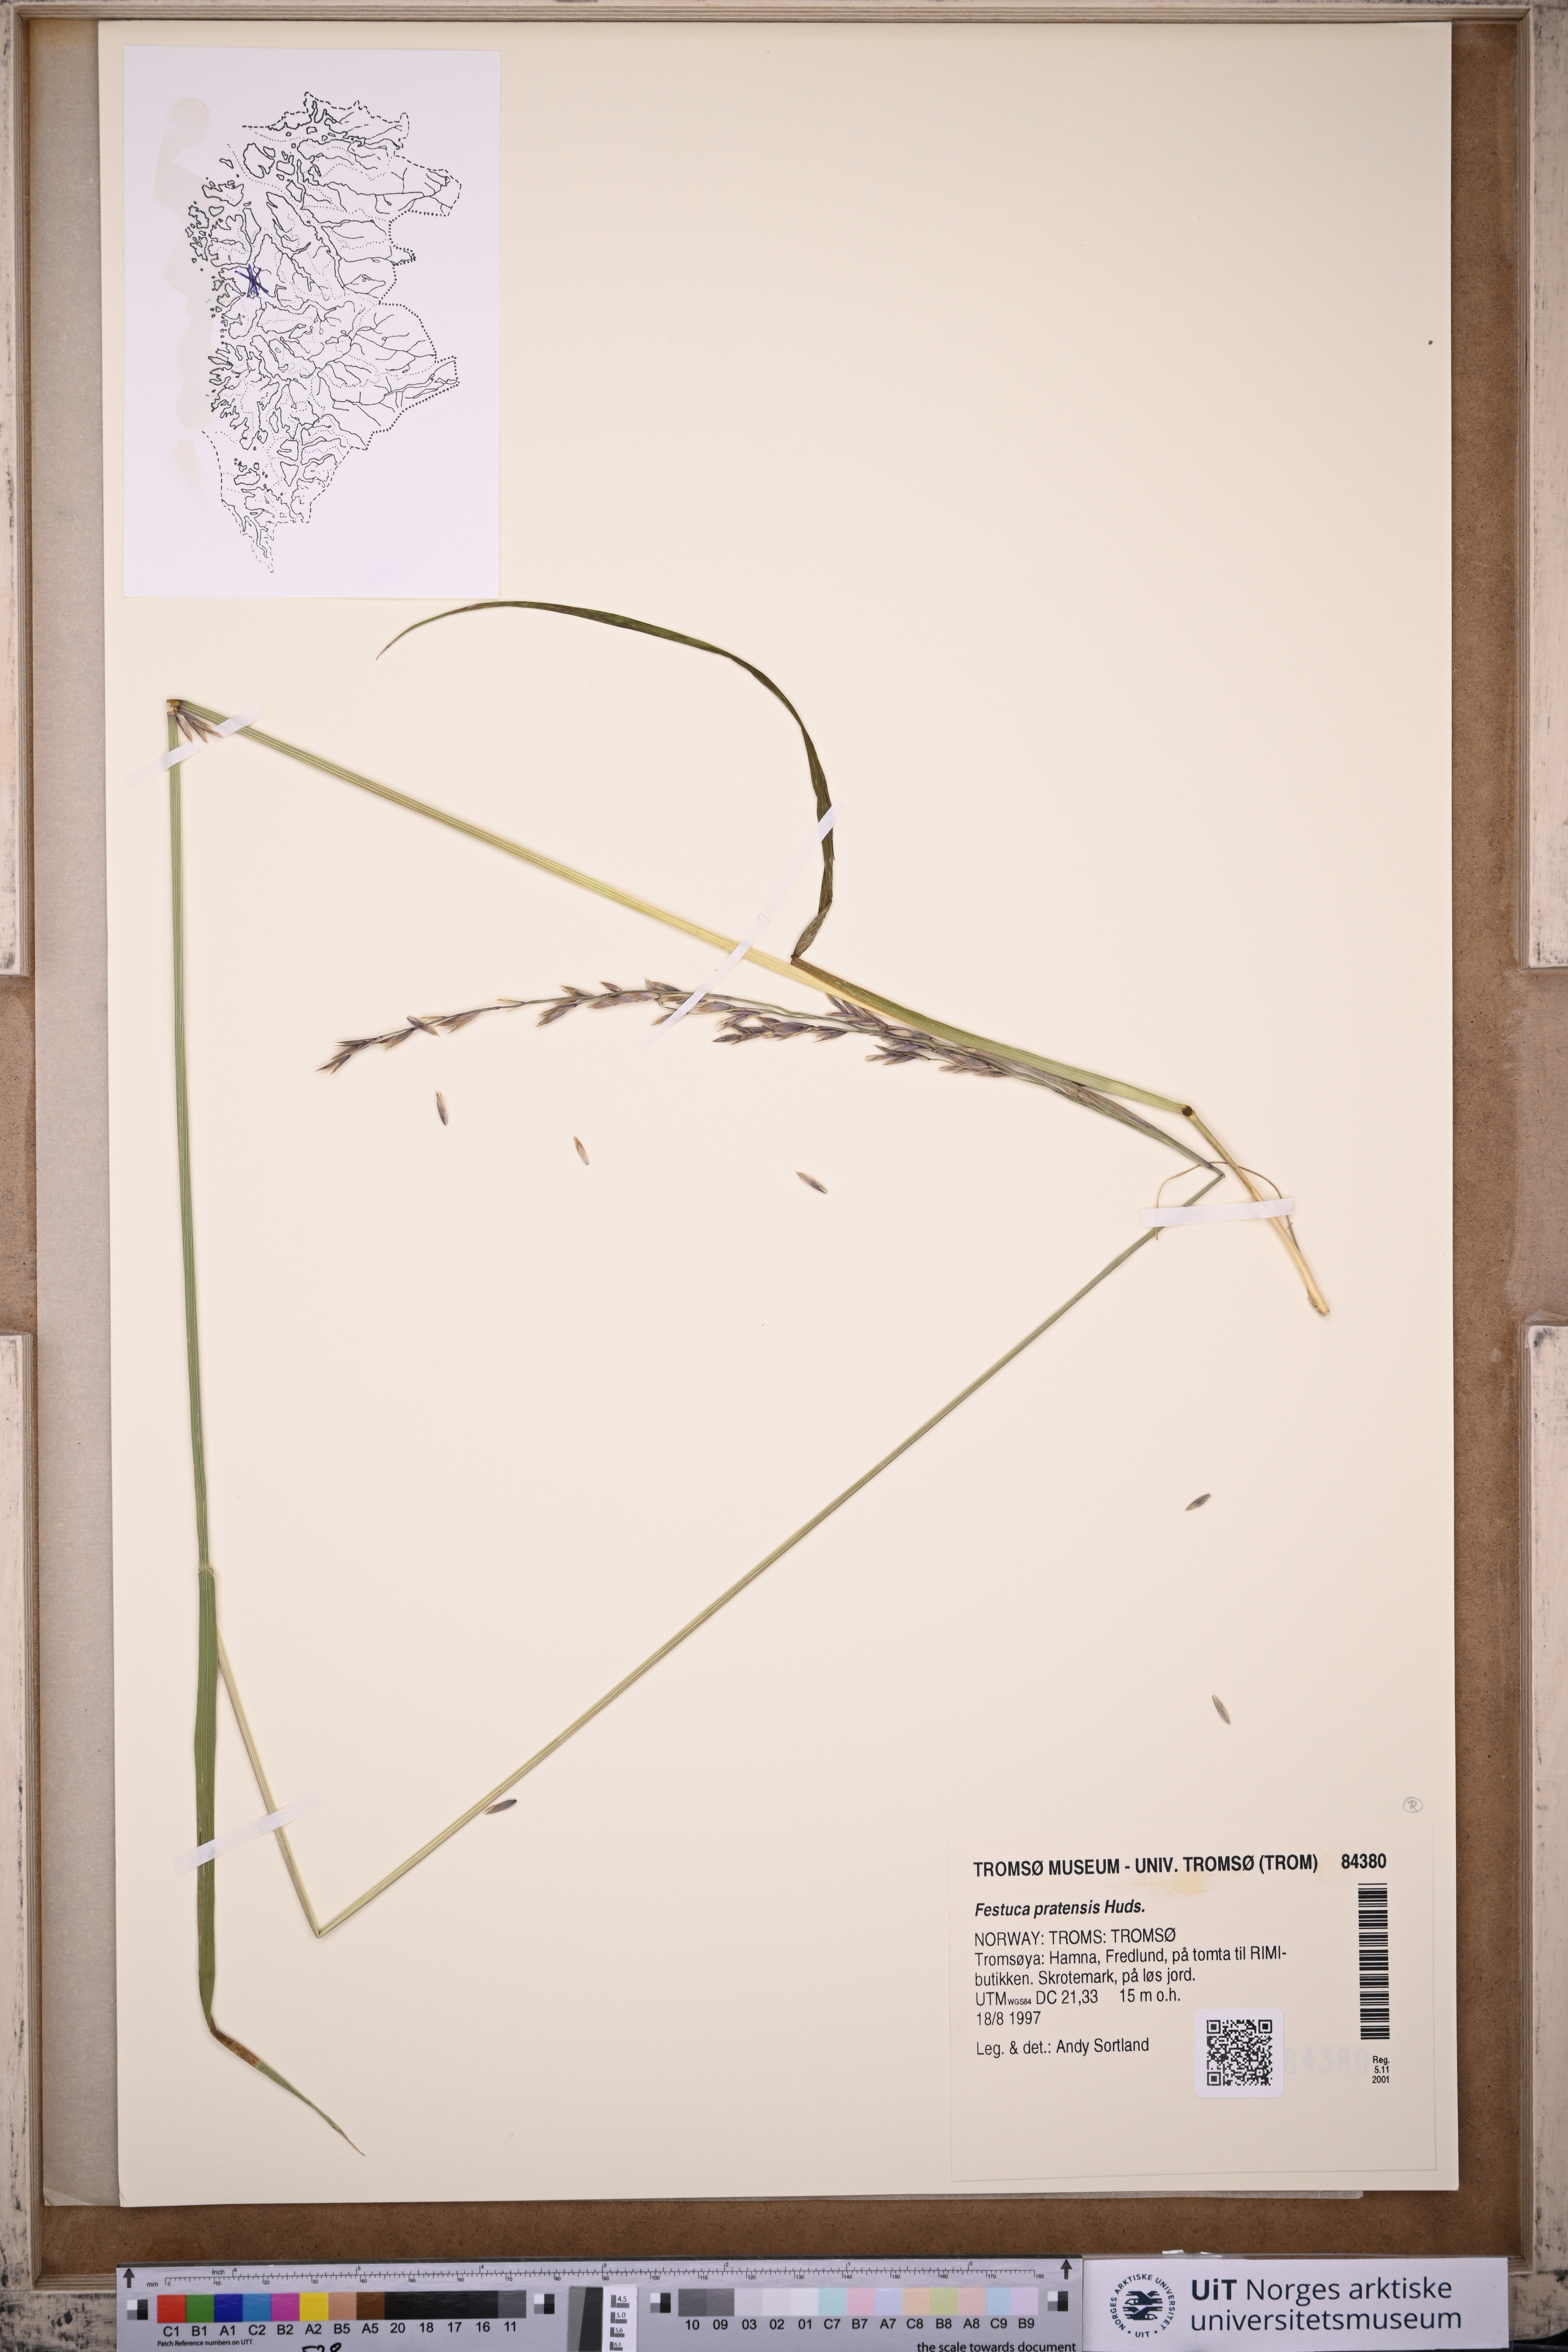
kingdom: Plantae
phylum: Tracheophyta
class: Liliopsida
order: Poales
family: Poaceae
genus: Lolium
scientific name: Lolium pratense
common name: Dover grass
